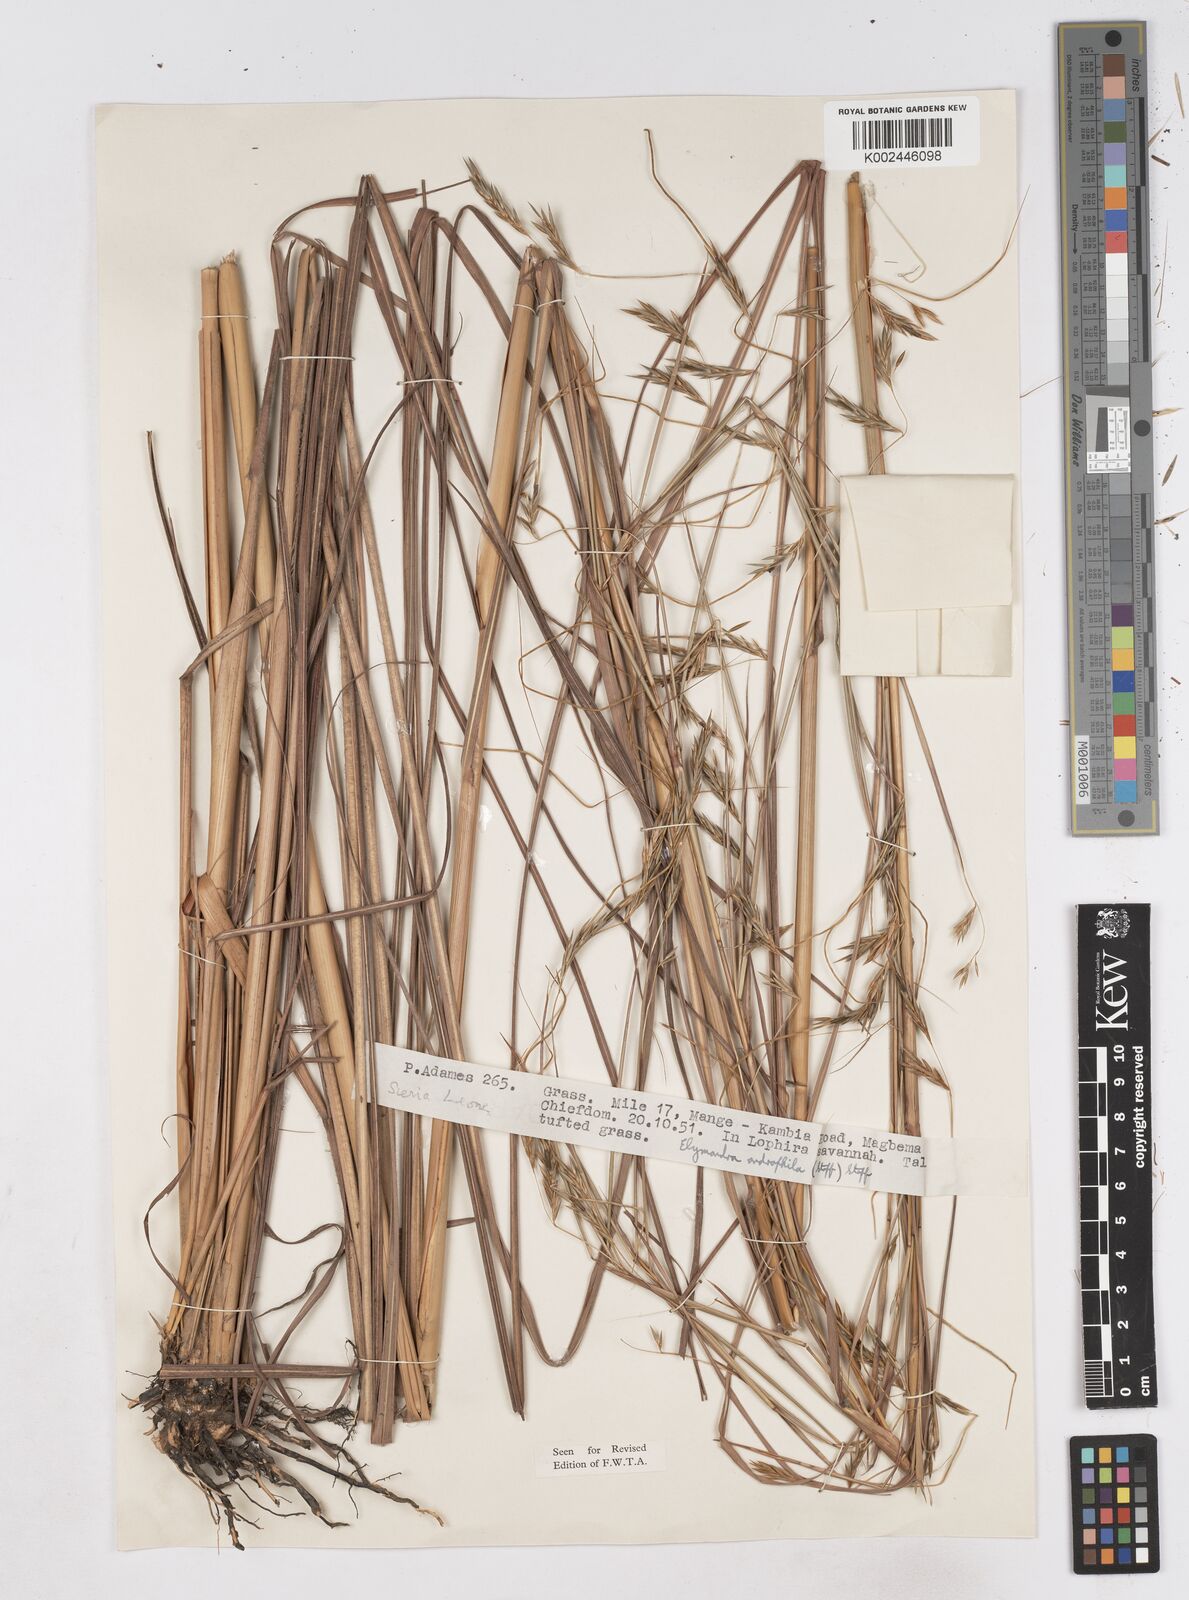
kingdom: Plantae
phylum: Tracheophyta
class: Liliopsida
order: Poales
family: Poaceae
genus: Elymandra
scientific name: Elymandra androphila
